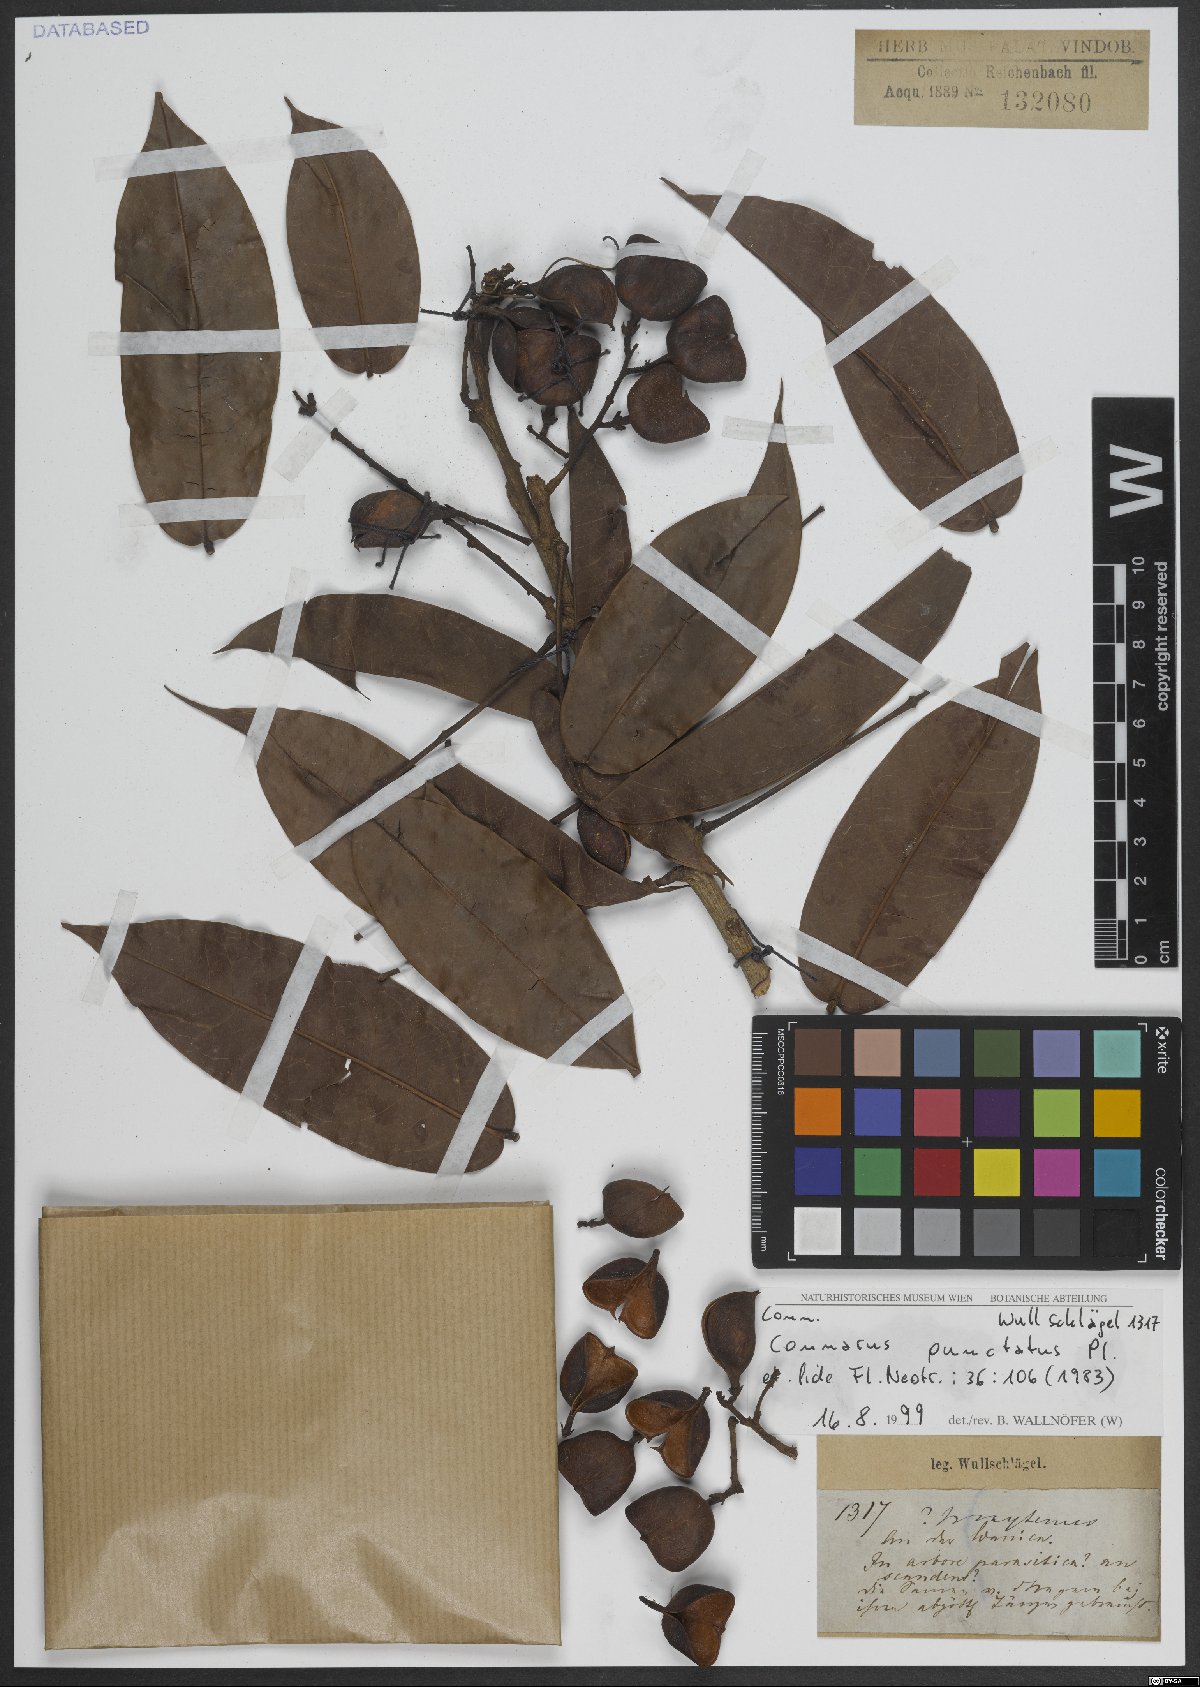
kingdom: Plantae
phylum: Tracheophyta
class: Magnoliopsida
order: Oxalidales
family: Connaraceae
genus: Connarus
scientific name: Connarus punctatus
